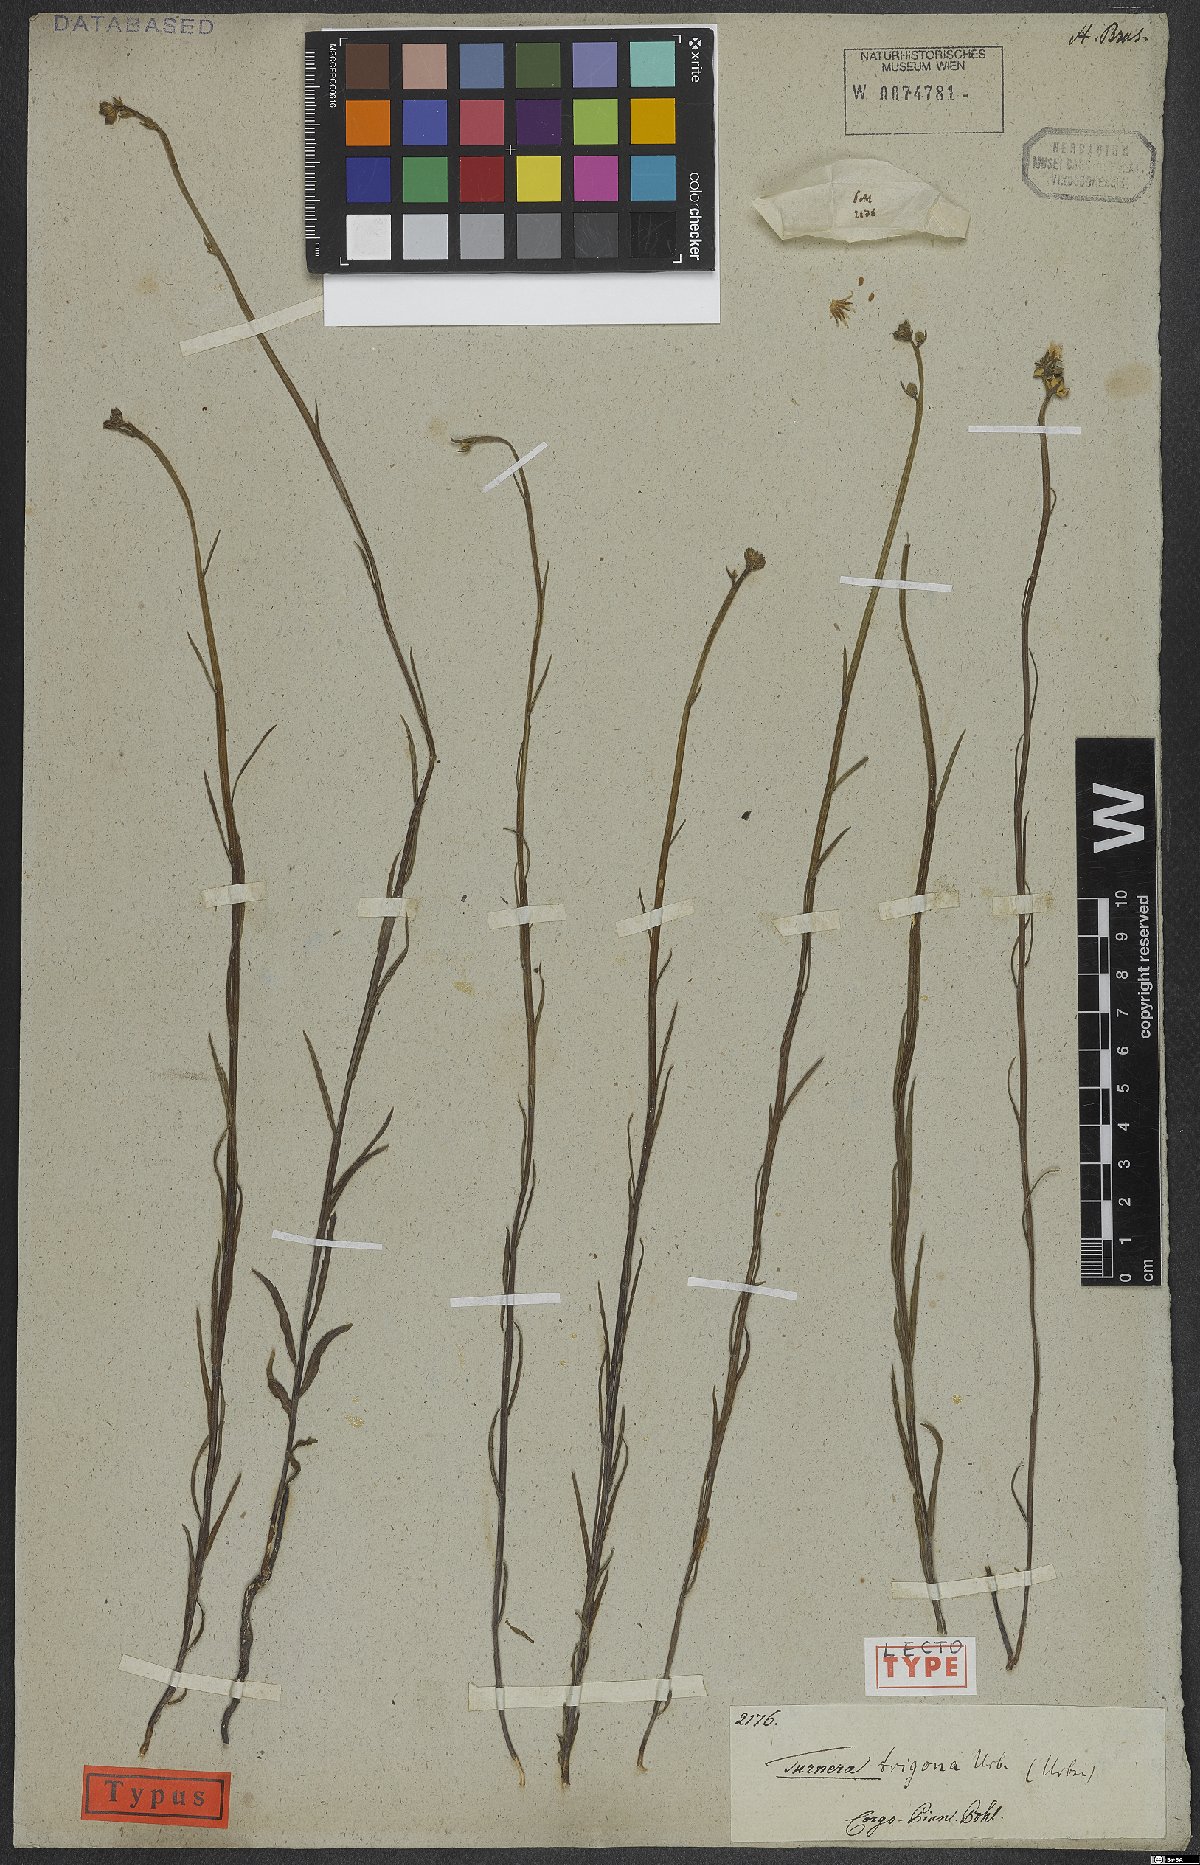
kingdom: Plantae
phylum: Tracheophyta
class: Magnoliopsida
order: Malpighiales
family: Turneraceae
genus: Turnera
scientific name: Turnera trigona
